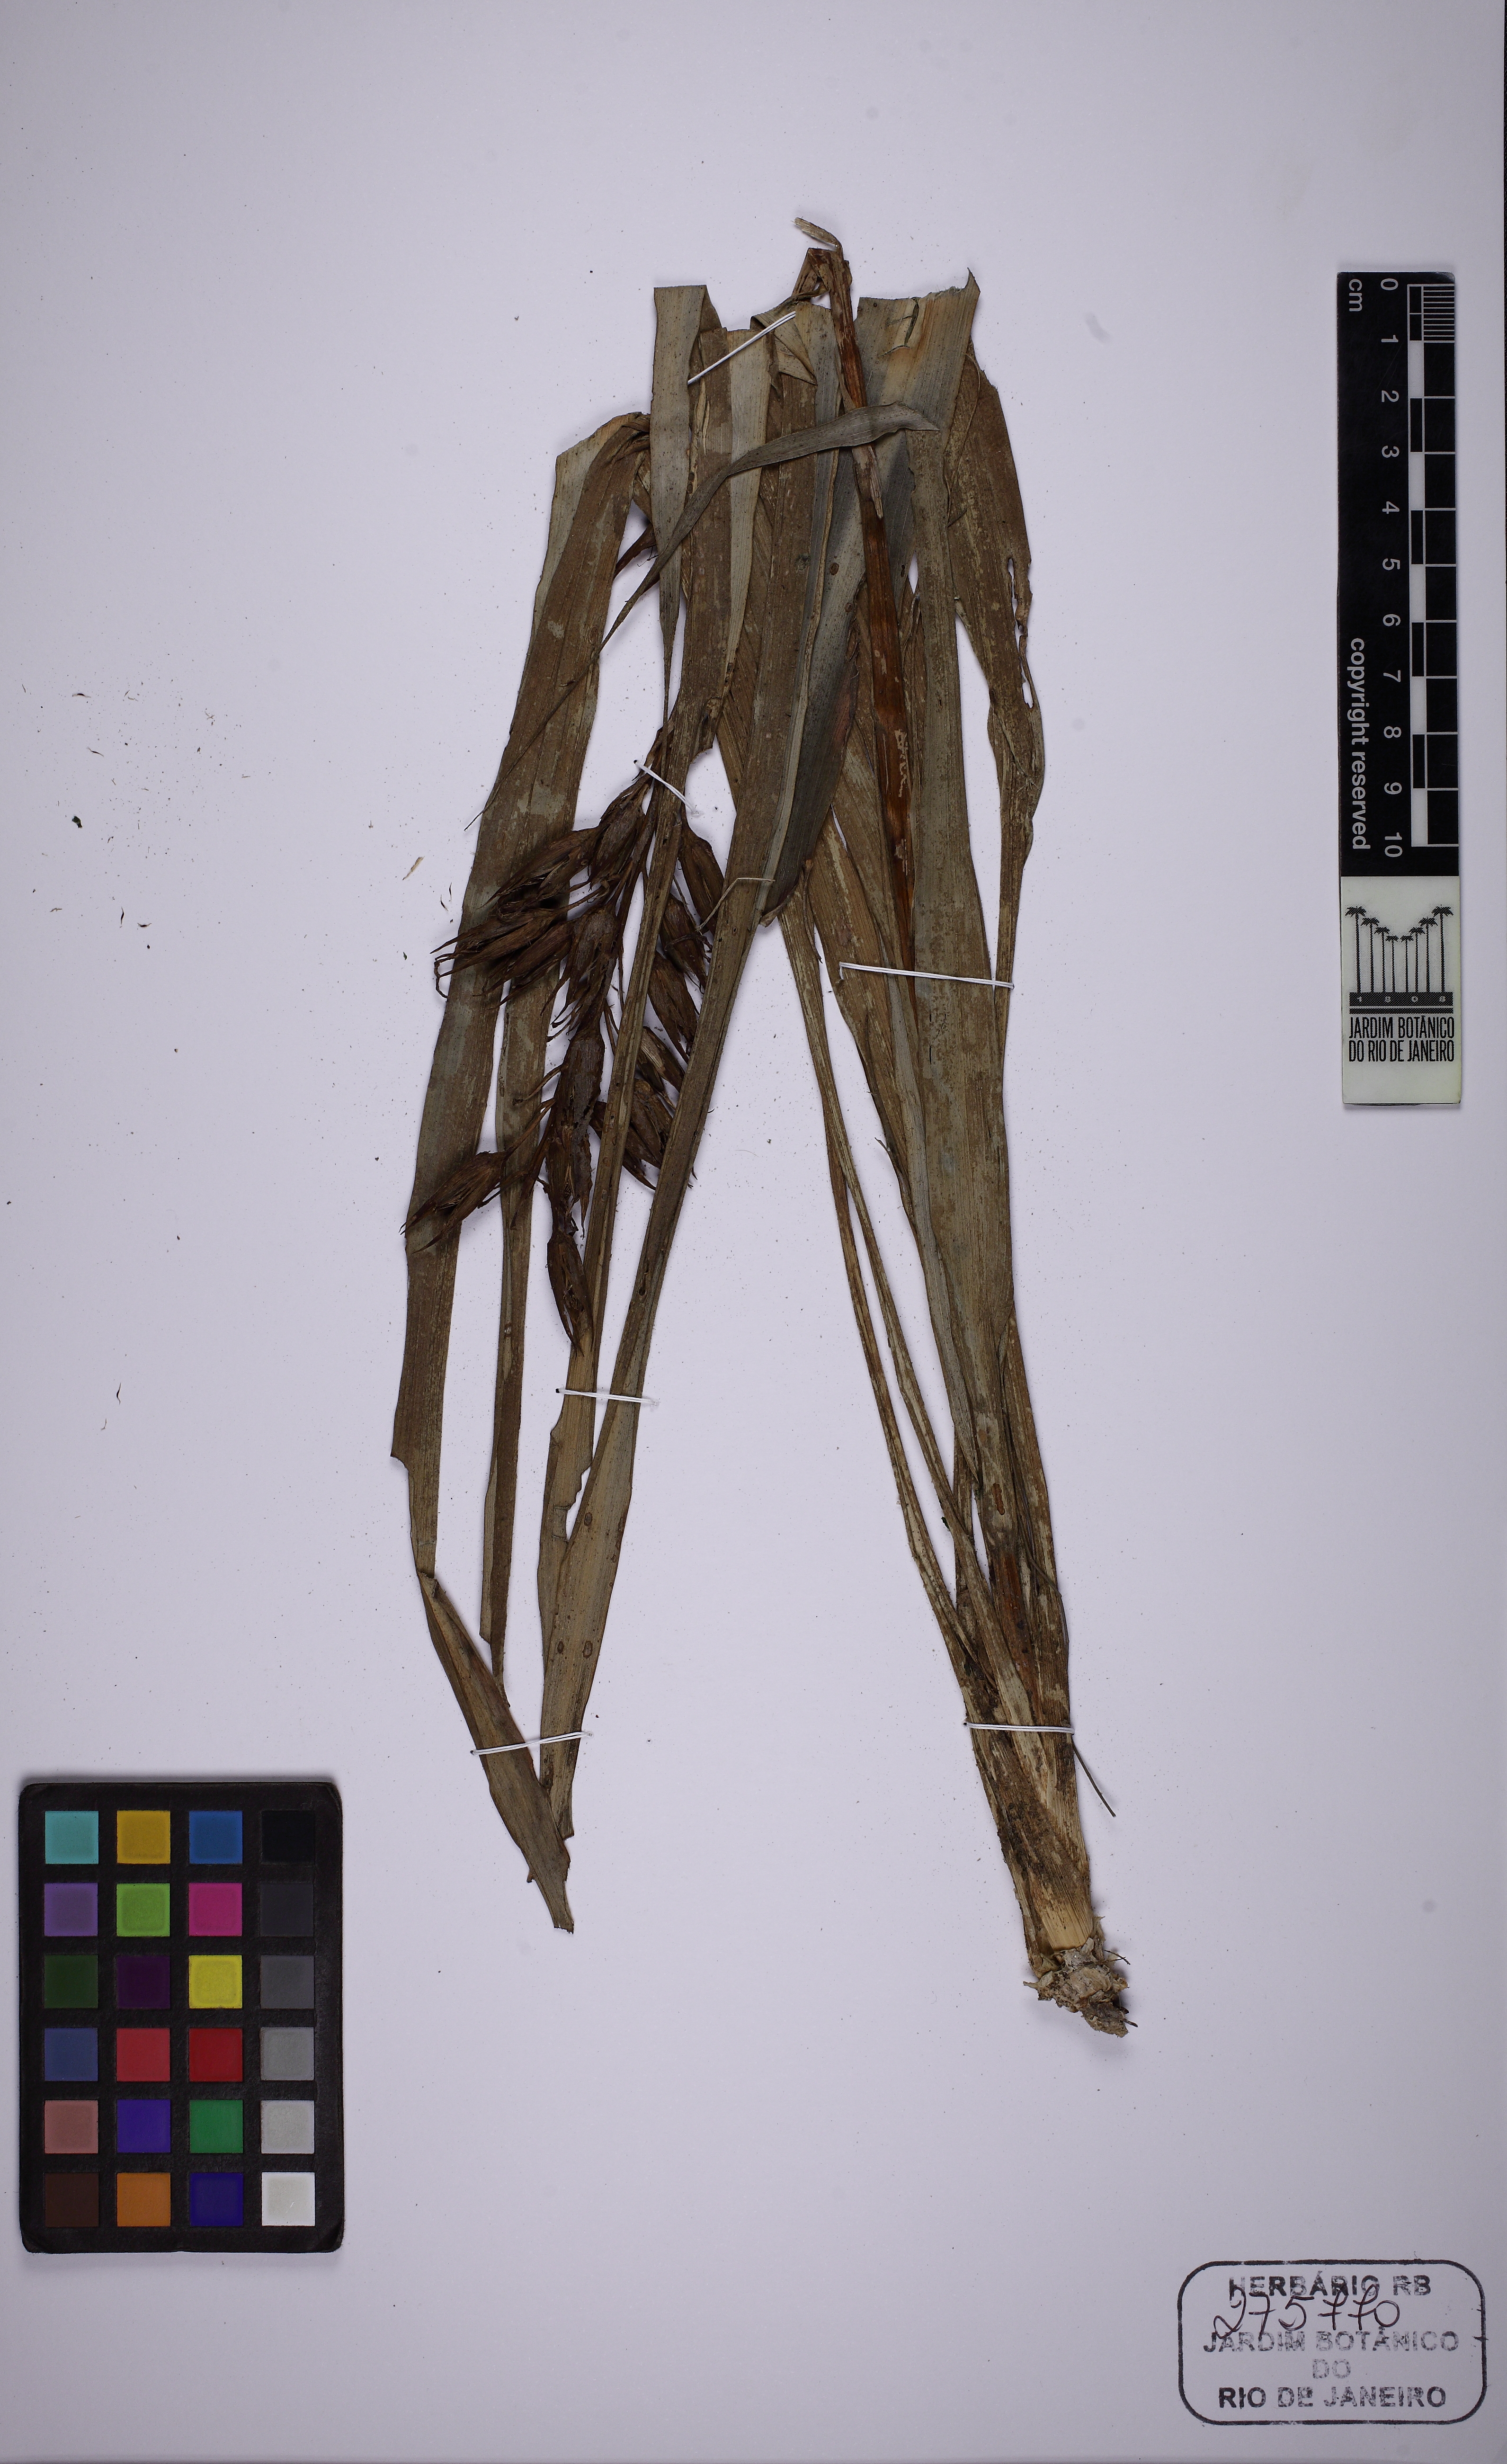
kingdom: Plantae
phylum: Tracheophyta
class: Liliopsida
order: Poales
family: Bromeliaceae
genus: Pitcairnia
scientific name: Pitcairnia corcovadensis
